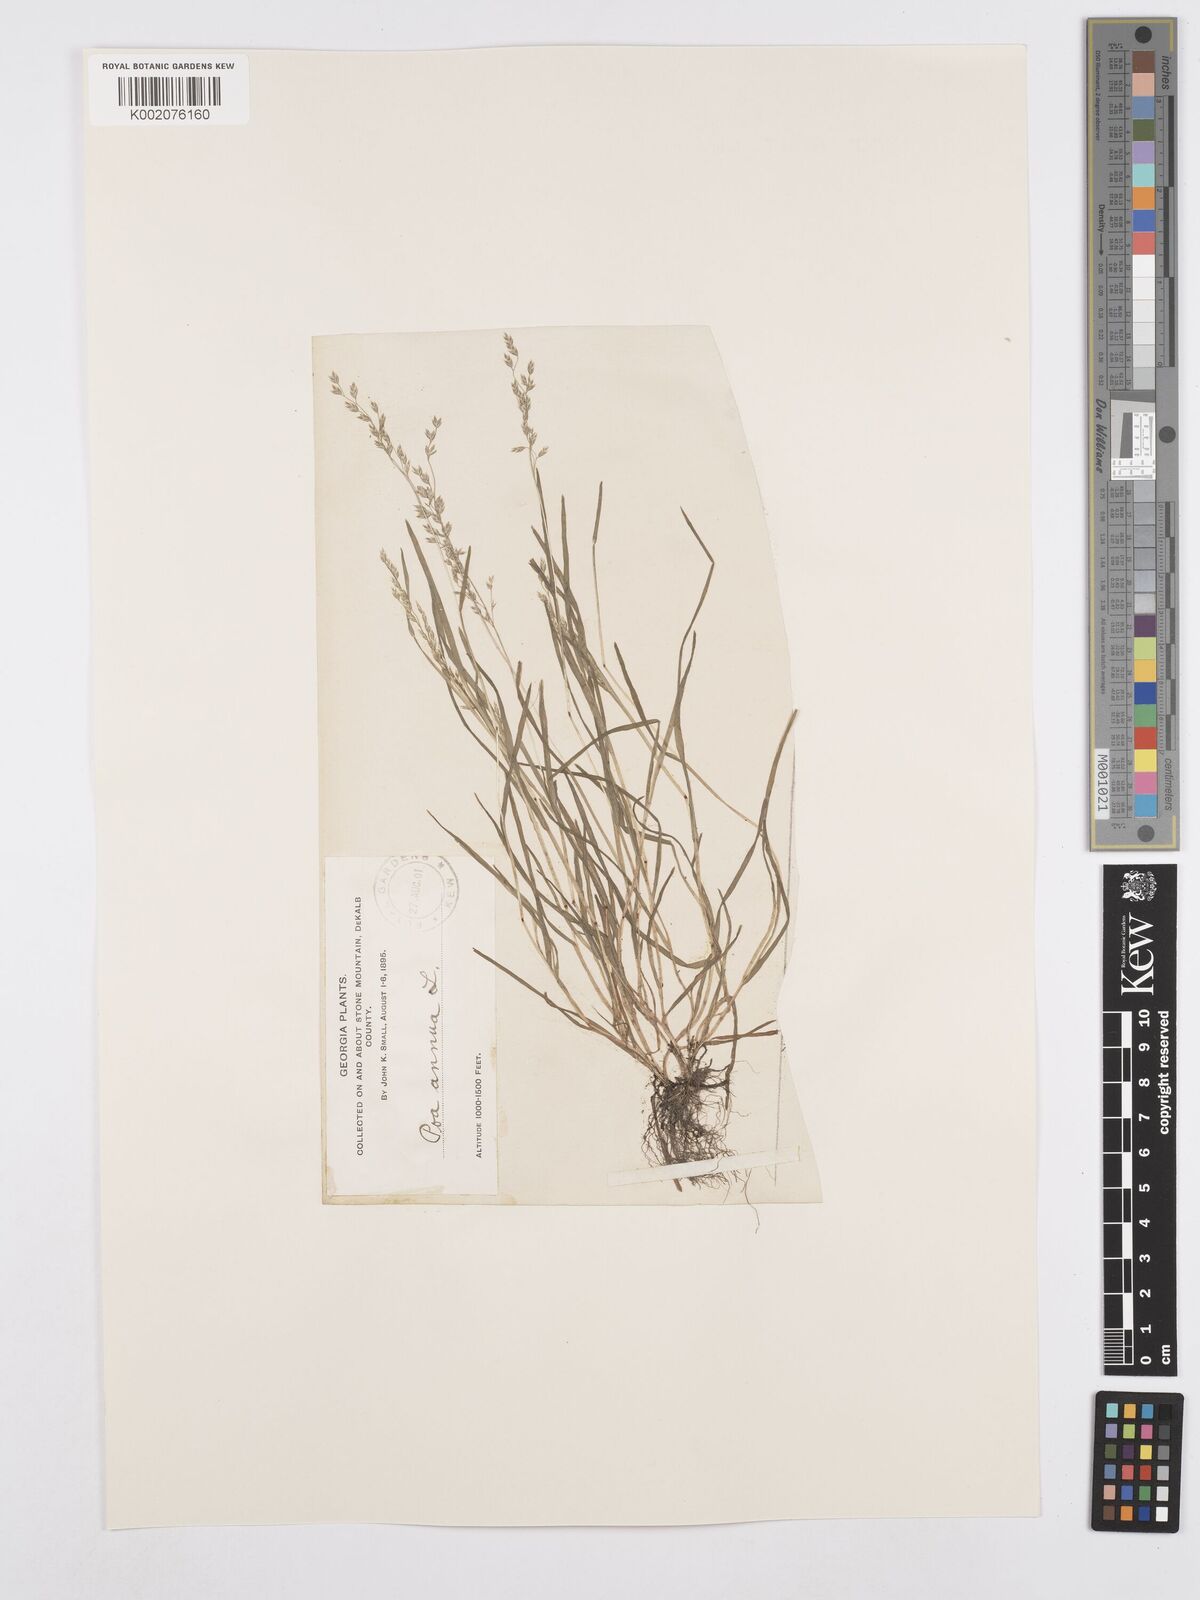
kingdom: Plantae
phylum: Tracheophyta
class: Liliopsida
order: Poales
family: Poaceae
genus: Poa
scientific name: Poa annua
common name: Annual bluegrass
